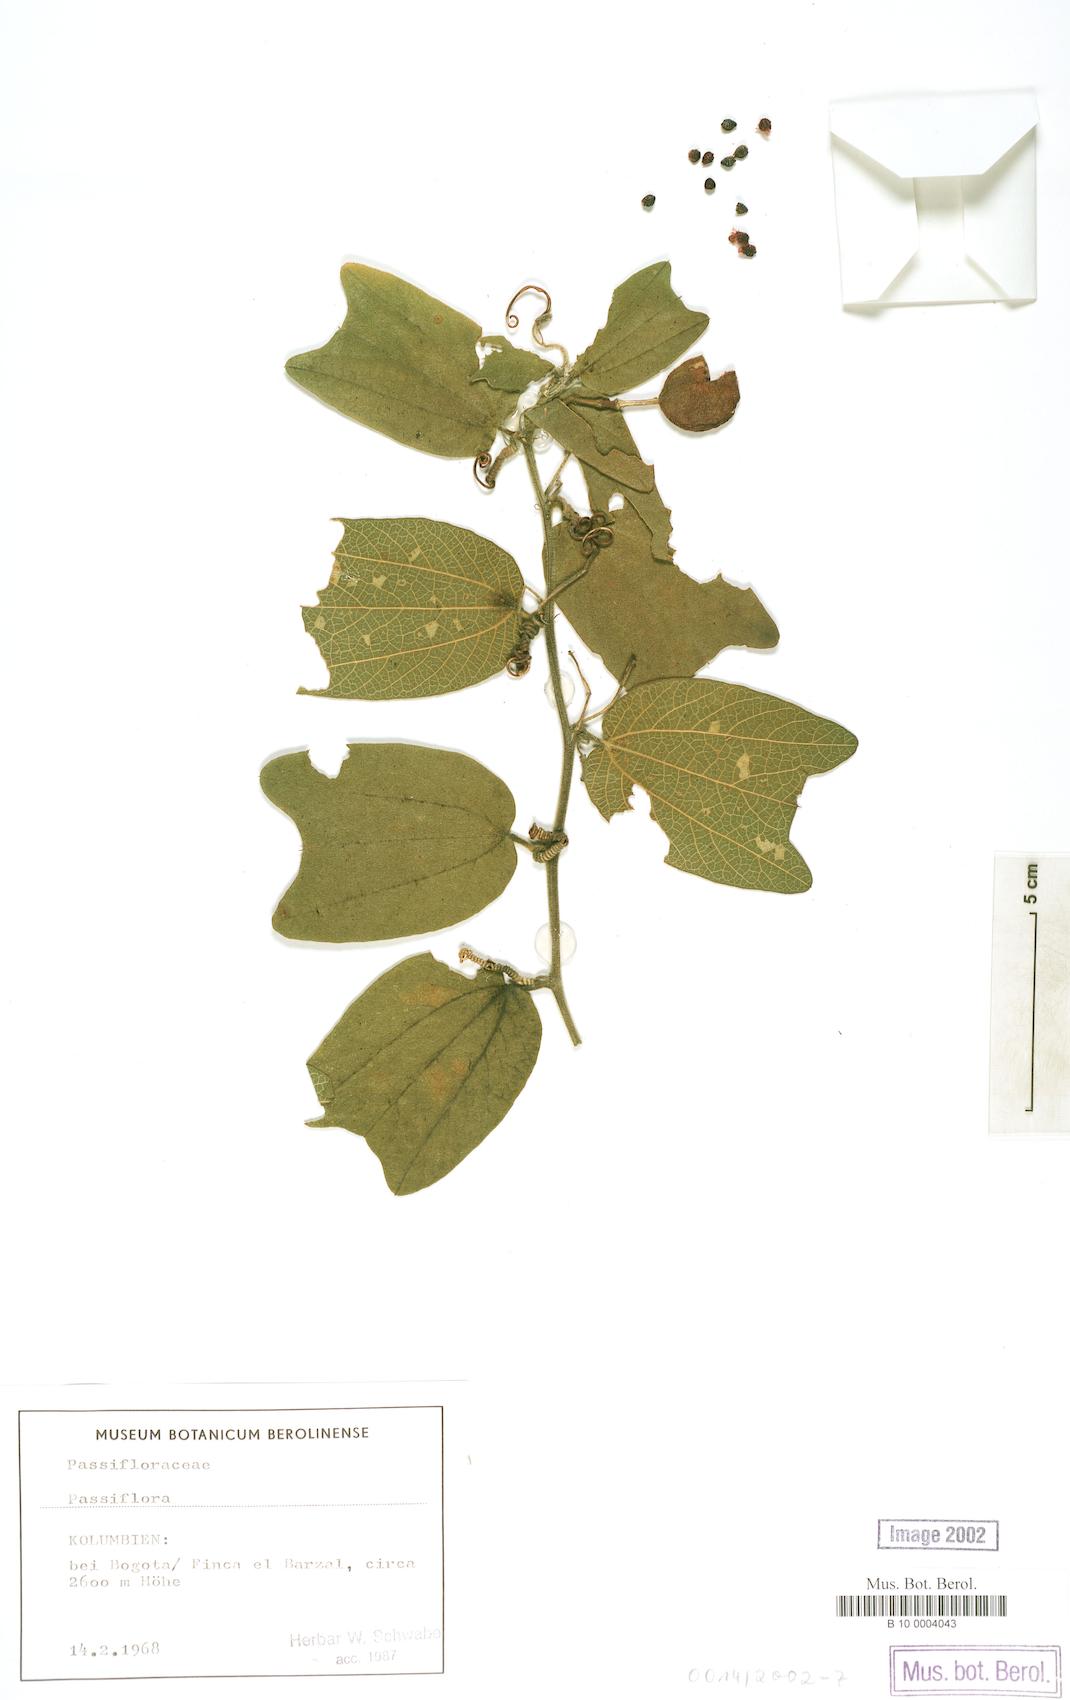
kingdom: Plantae
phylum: Tracheophyta
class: Magnoliopsida
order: Malpighiales
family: Passifloraceae
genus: Passiflora
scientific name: Passiflora
